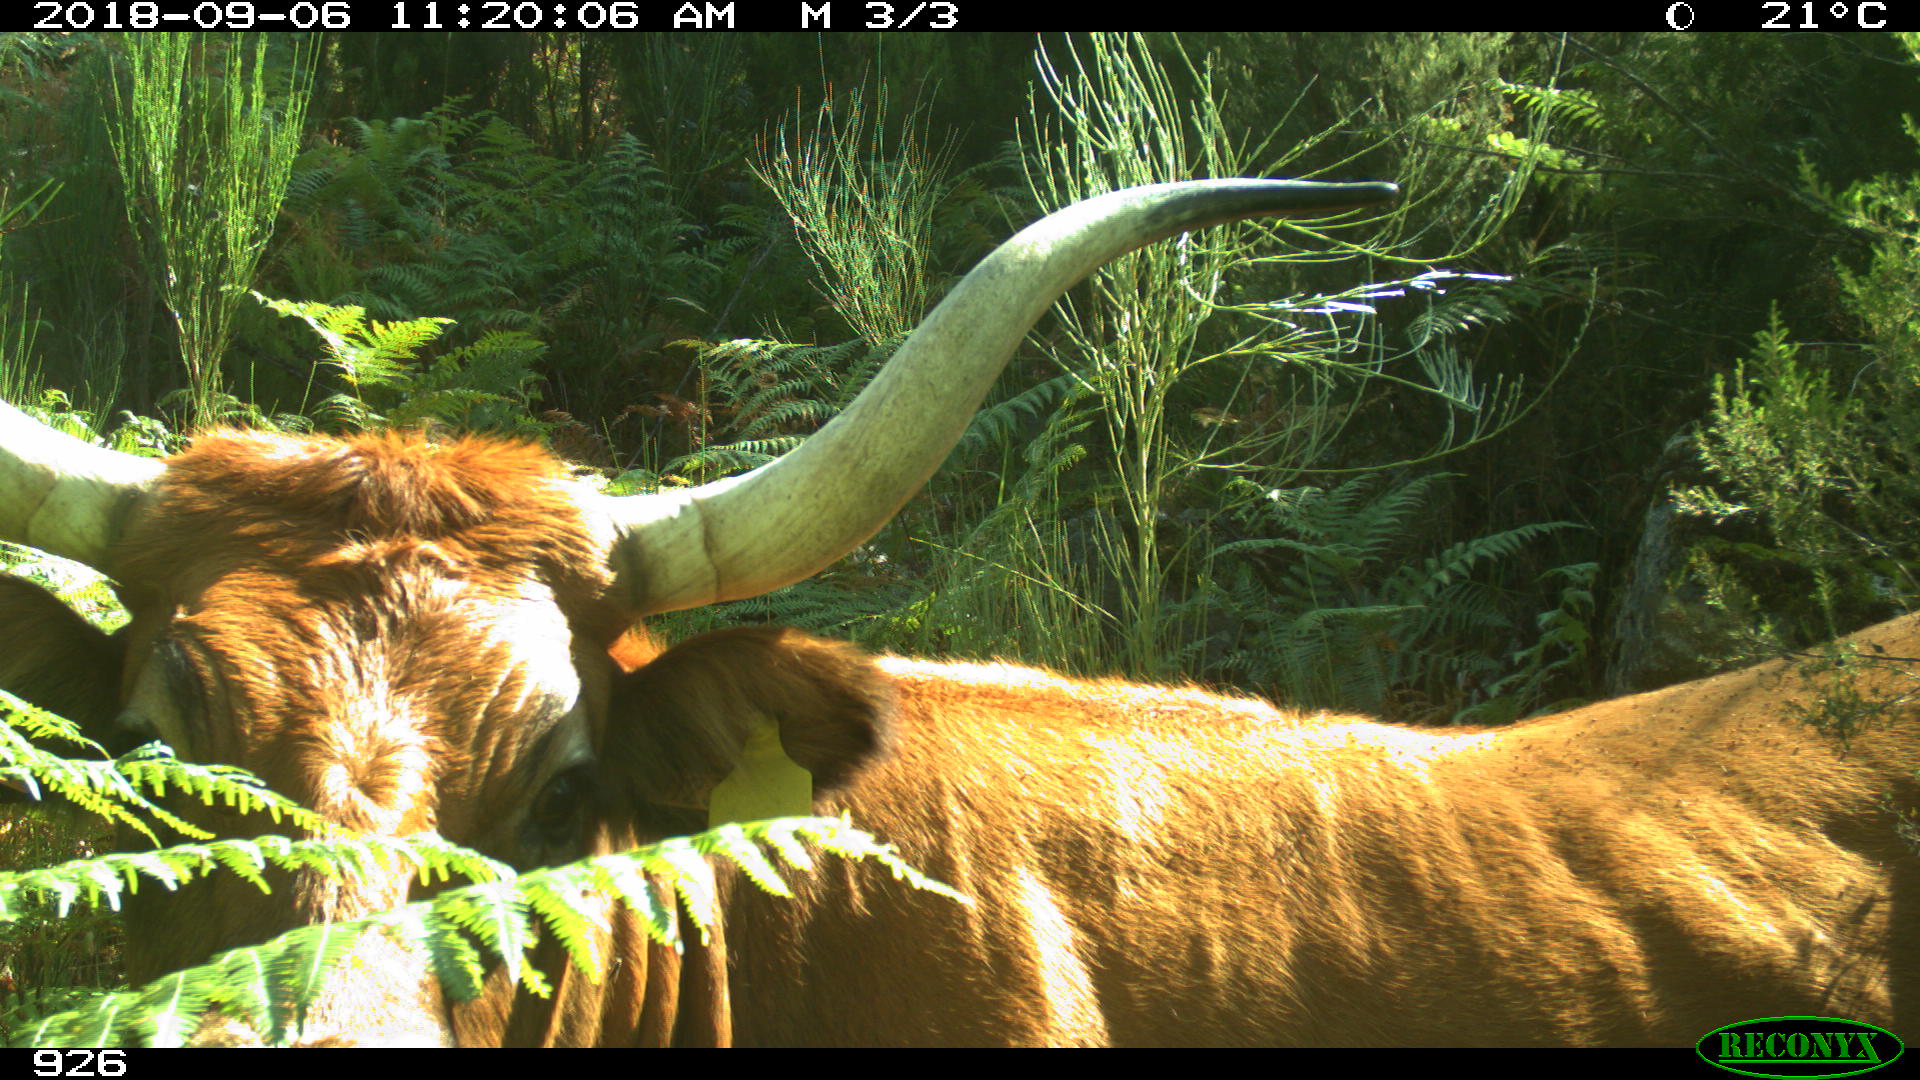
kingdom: Animalia
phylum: Chordata
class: Mammalia
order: Artiodactyla
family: Bovidae
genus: Bos
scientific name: Bos taurus
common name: Domesticated cattle
